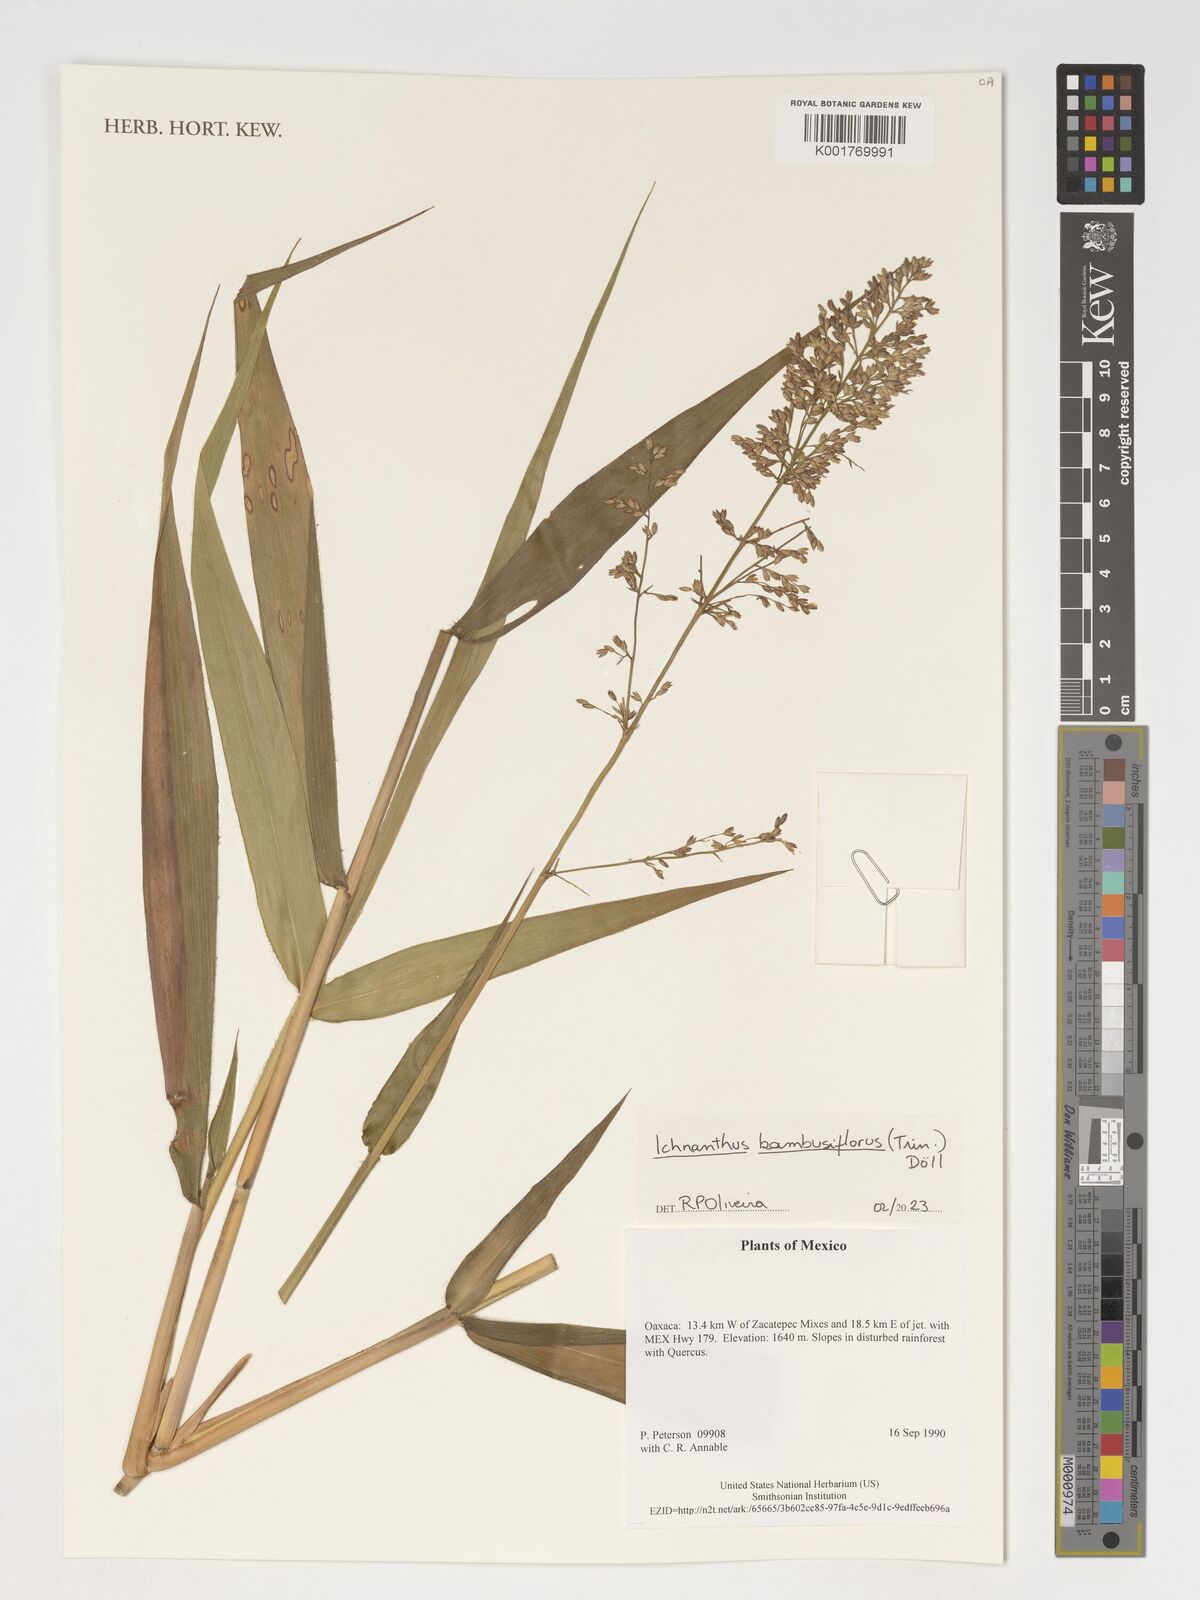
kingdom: Plantae
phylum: Tracheophyta
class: Liliopsida
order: Poales
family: Poaceae
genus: Ichnanthus
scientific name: Ichnanthus bambusiflorus
